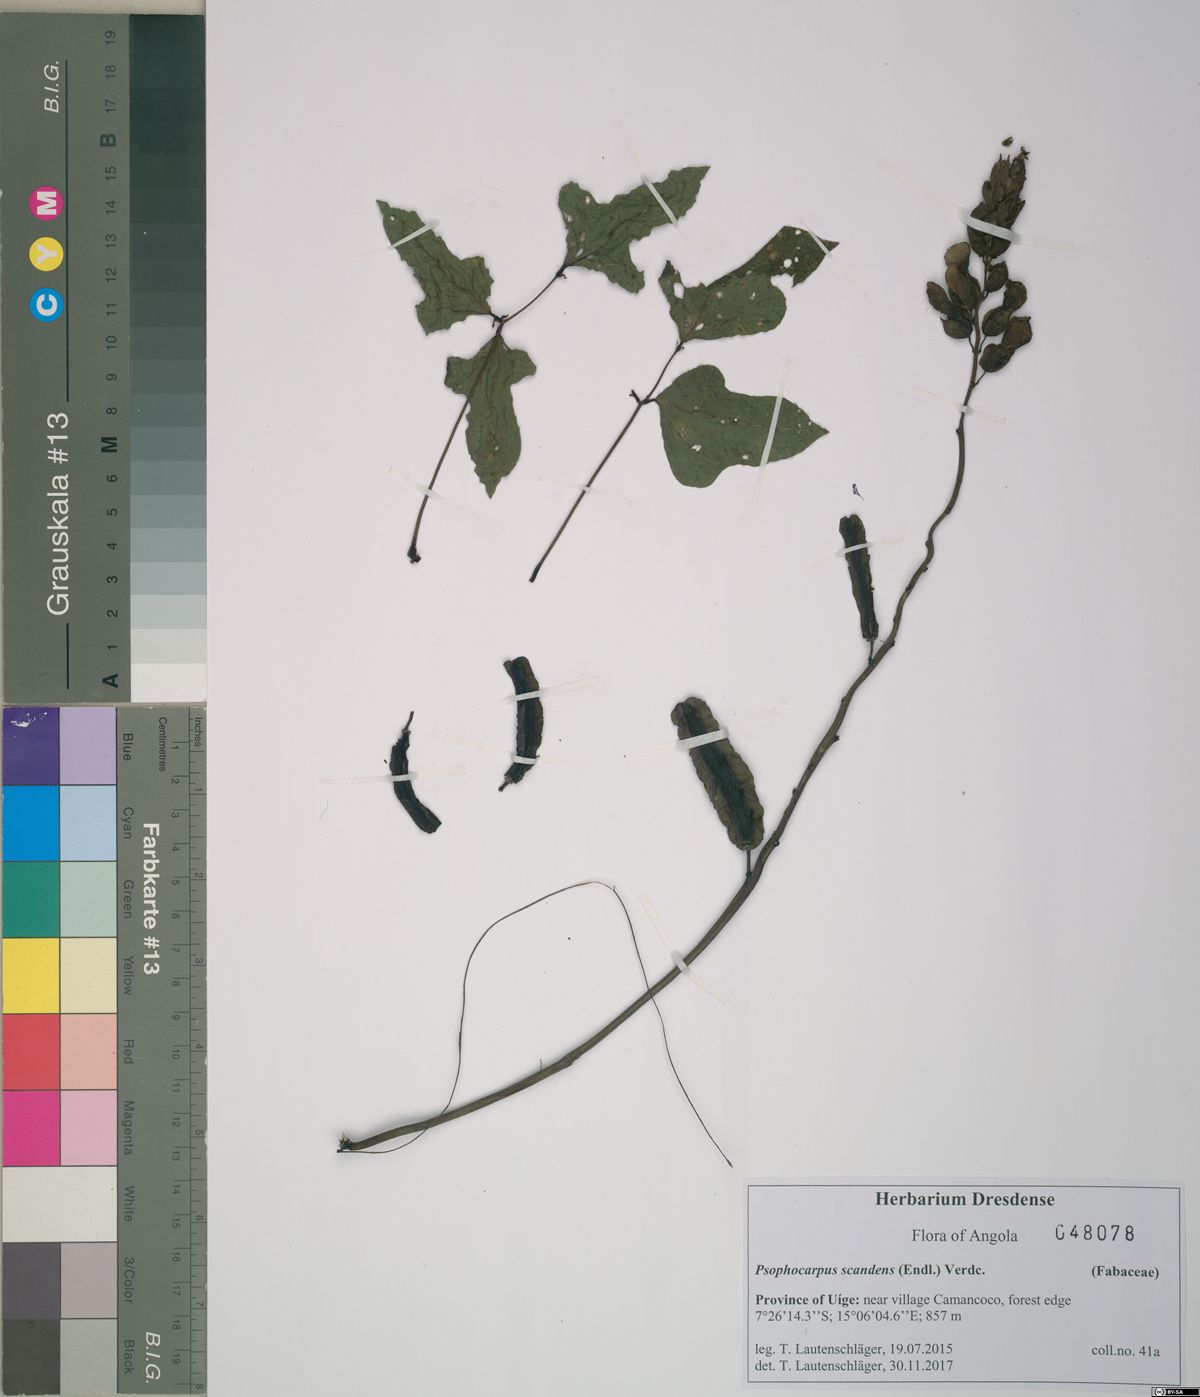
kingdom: Plantae
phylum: Tracheophyta
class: Magnoliopsida
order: Fabales
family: Fabaceae
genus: Psophocarpus
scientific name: Psophocarpus scandens
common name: Tropical african winged-bean
